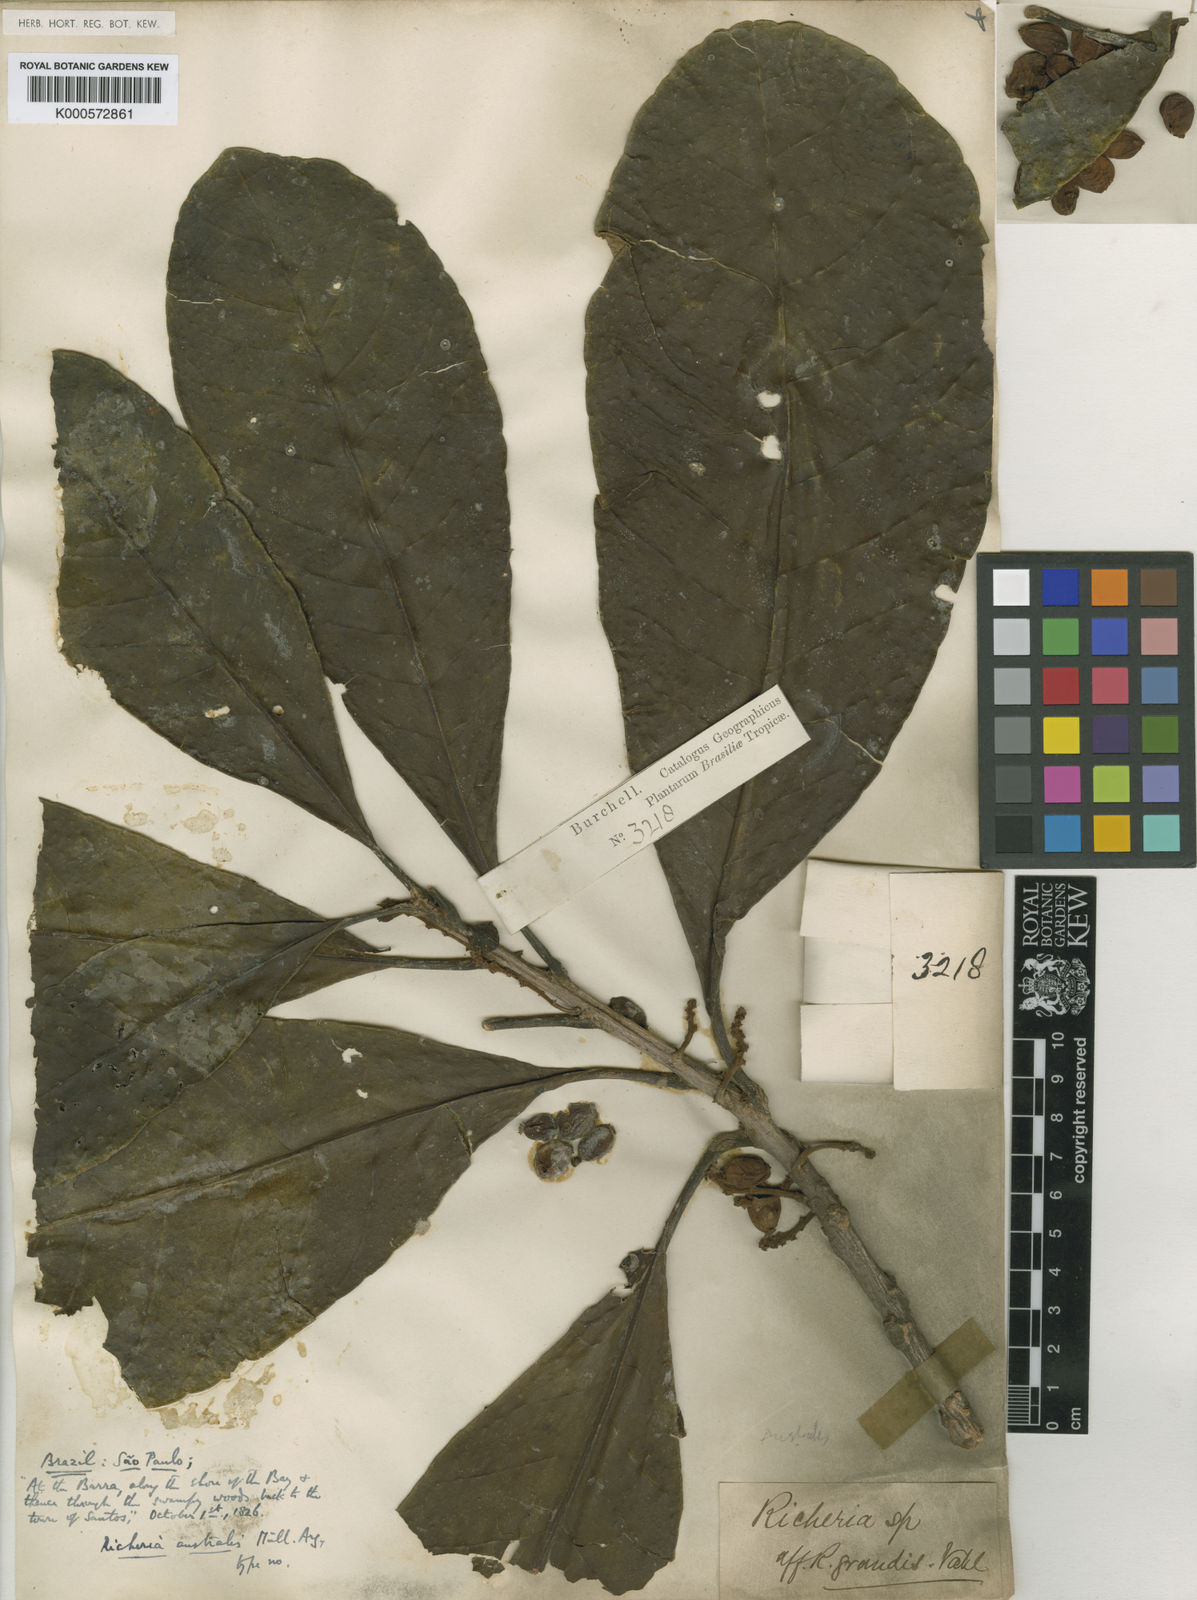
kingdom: Plantae
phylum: Tracheophyta
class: Magnoliopsida
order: Malpighiales
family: Phyllanthaceae
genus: Richeria
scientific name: Richeria
